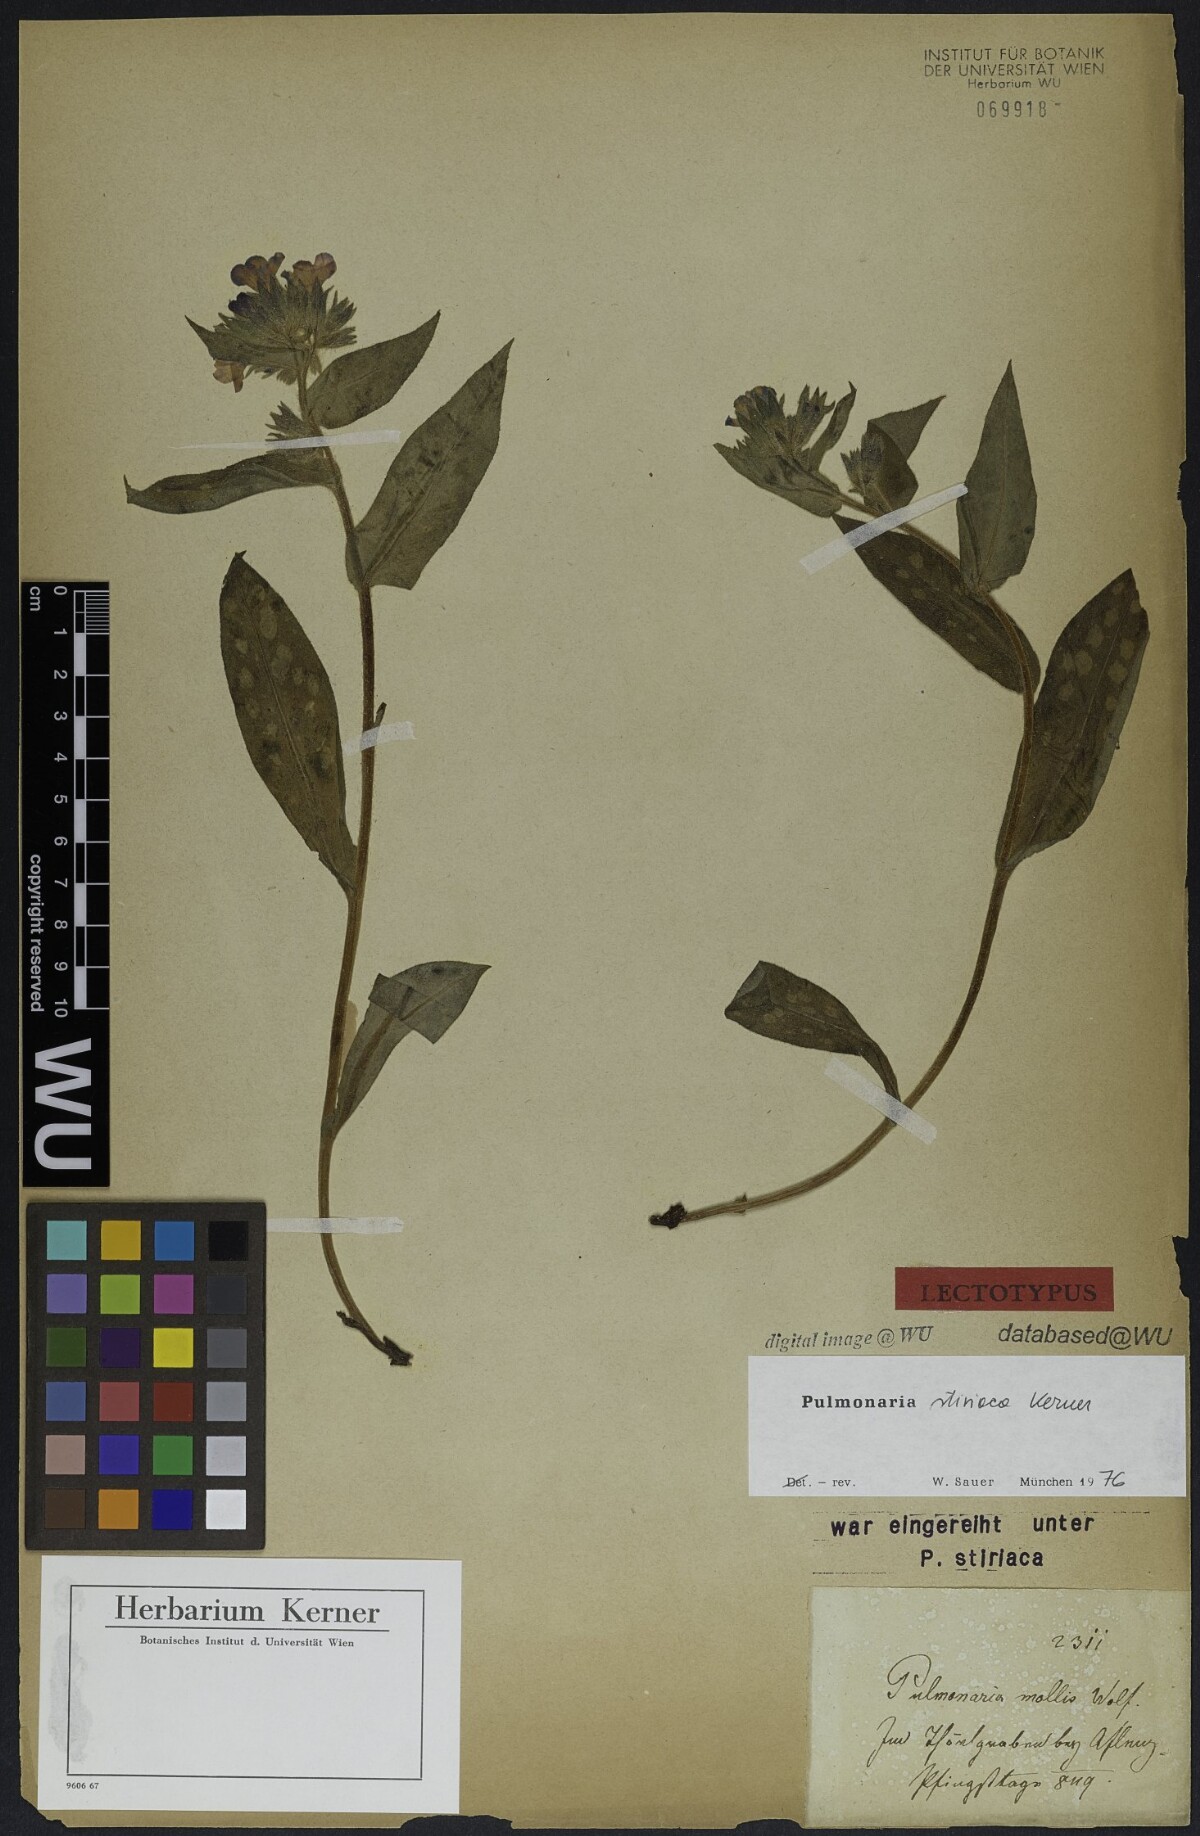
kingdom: Plantae
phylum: Tracheophyta
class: Magnoliopsida
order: Boraginales
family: Boraginaceae
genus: Pulmonaria
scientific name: Pulmonaria stiriaca
